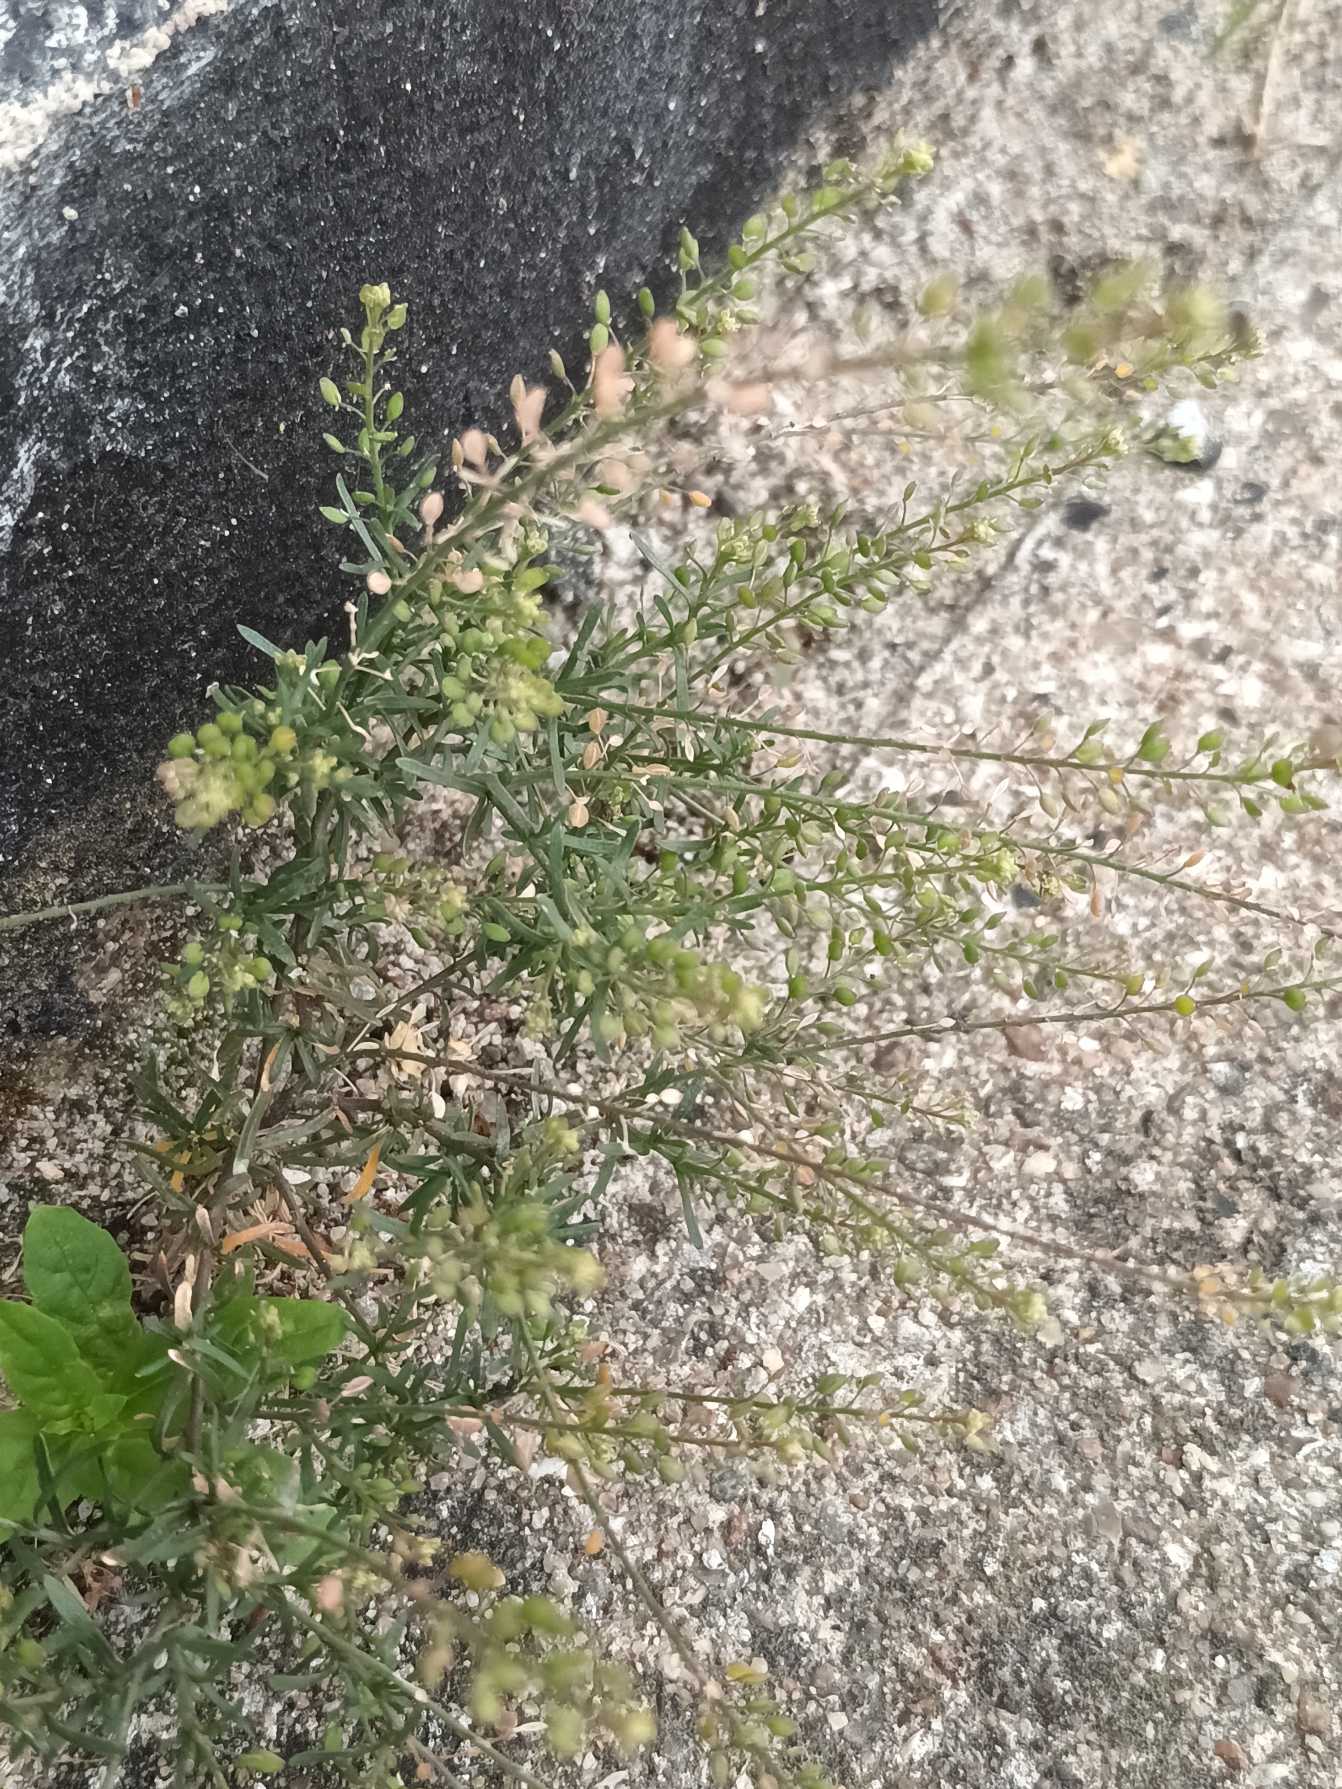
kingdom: Plantae
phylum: Tracheophyta
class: Magnoliopsida
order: Brassicales
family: Brassicaceae
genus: Lepidium
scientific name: Lepidium ruderale
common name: Stinkende karse
